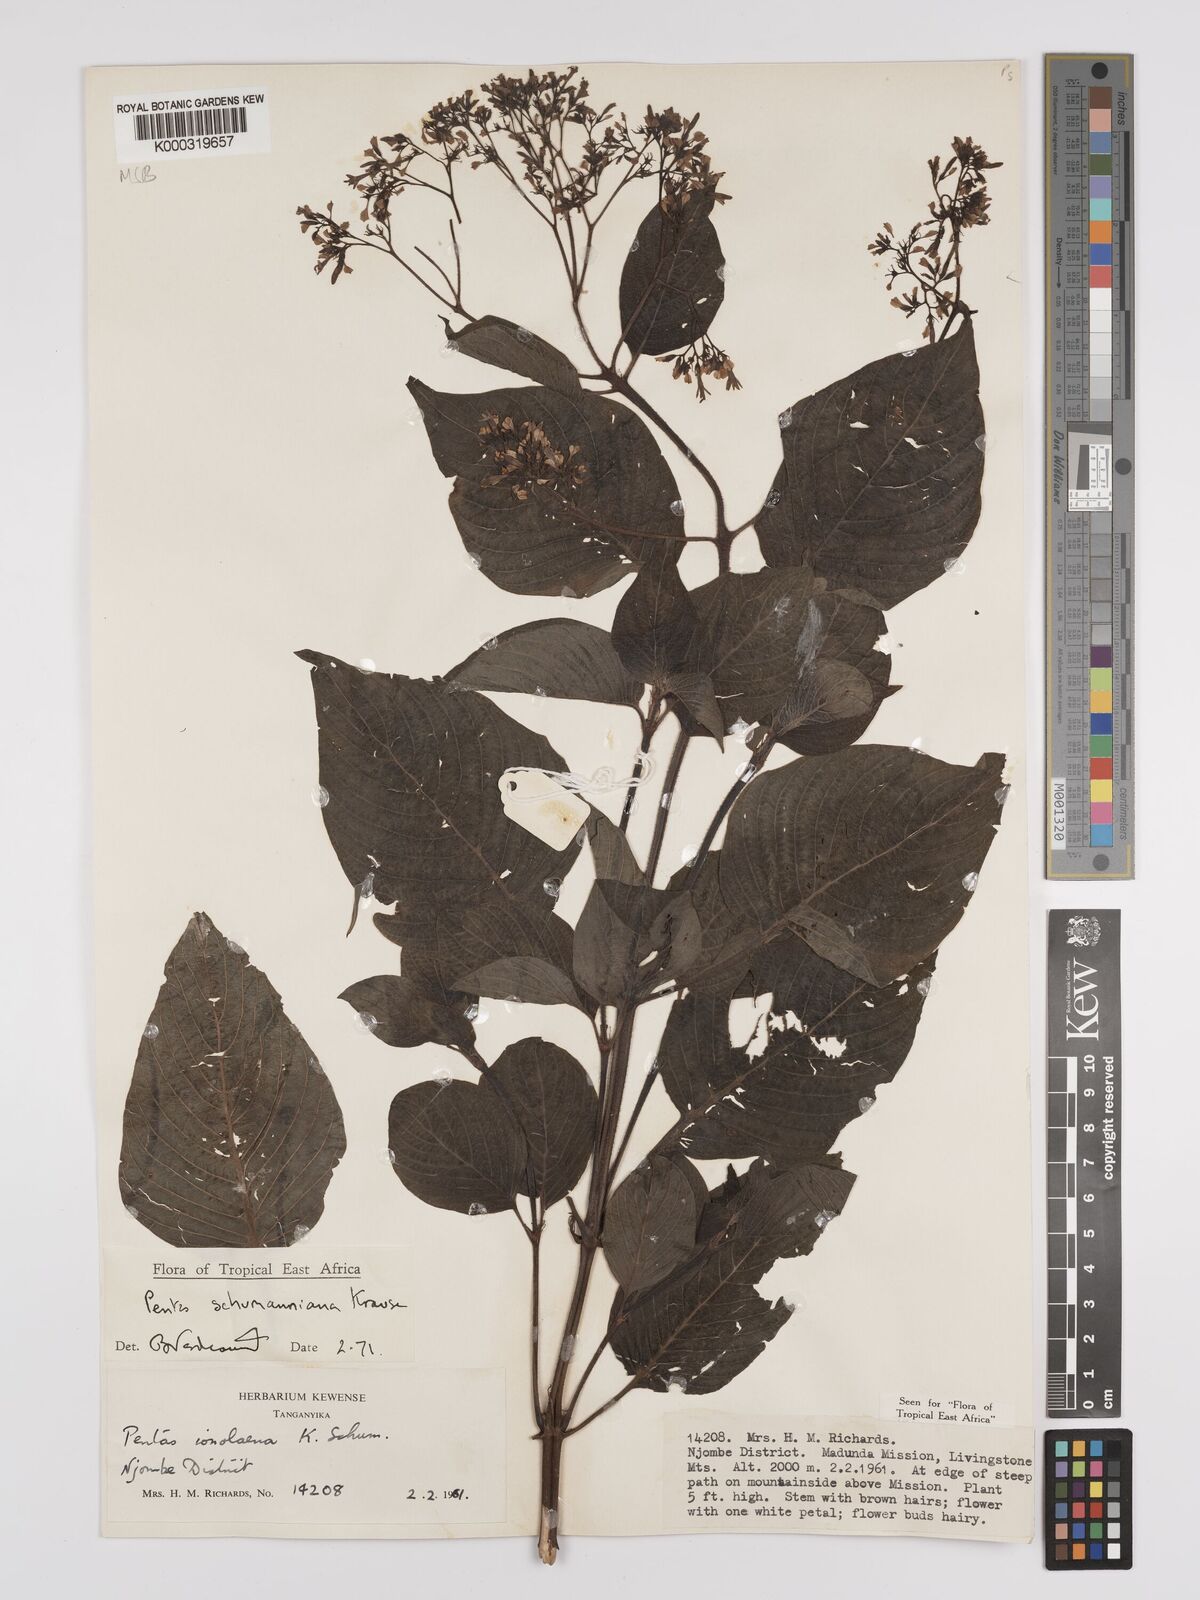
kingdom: Plantae
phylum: Tracheophyta
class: Magnoliopsida
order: Gentianales
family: Rubiaceae
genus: Phyllopentas
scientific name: Phyllopentas schumanniana
